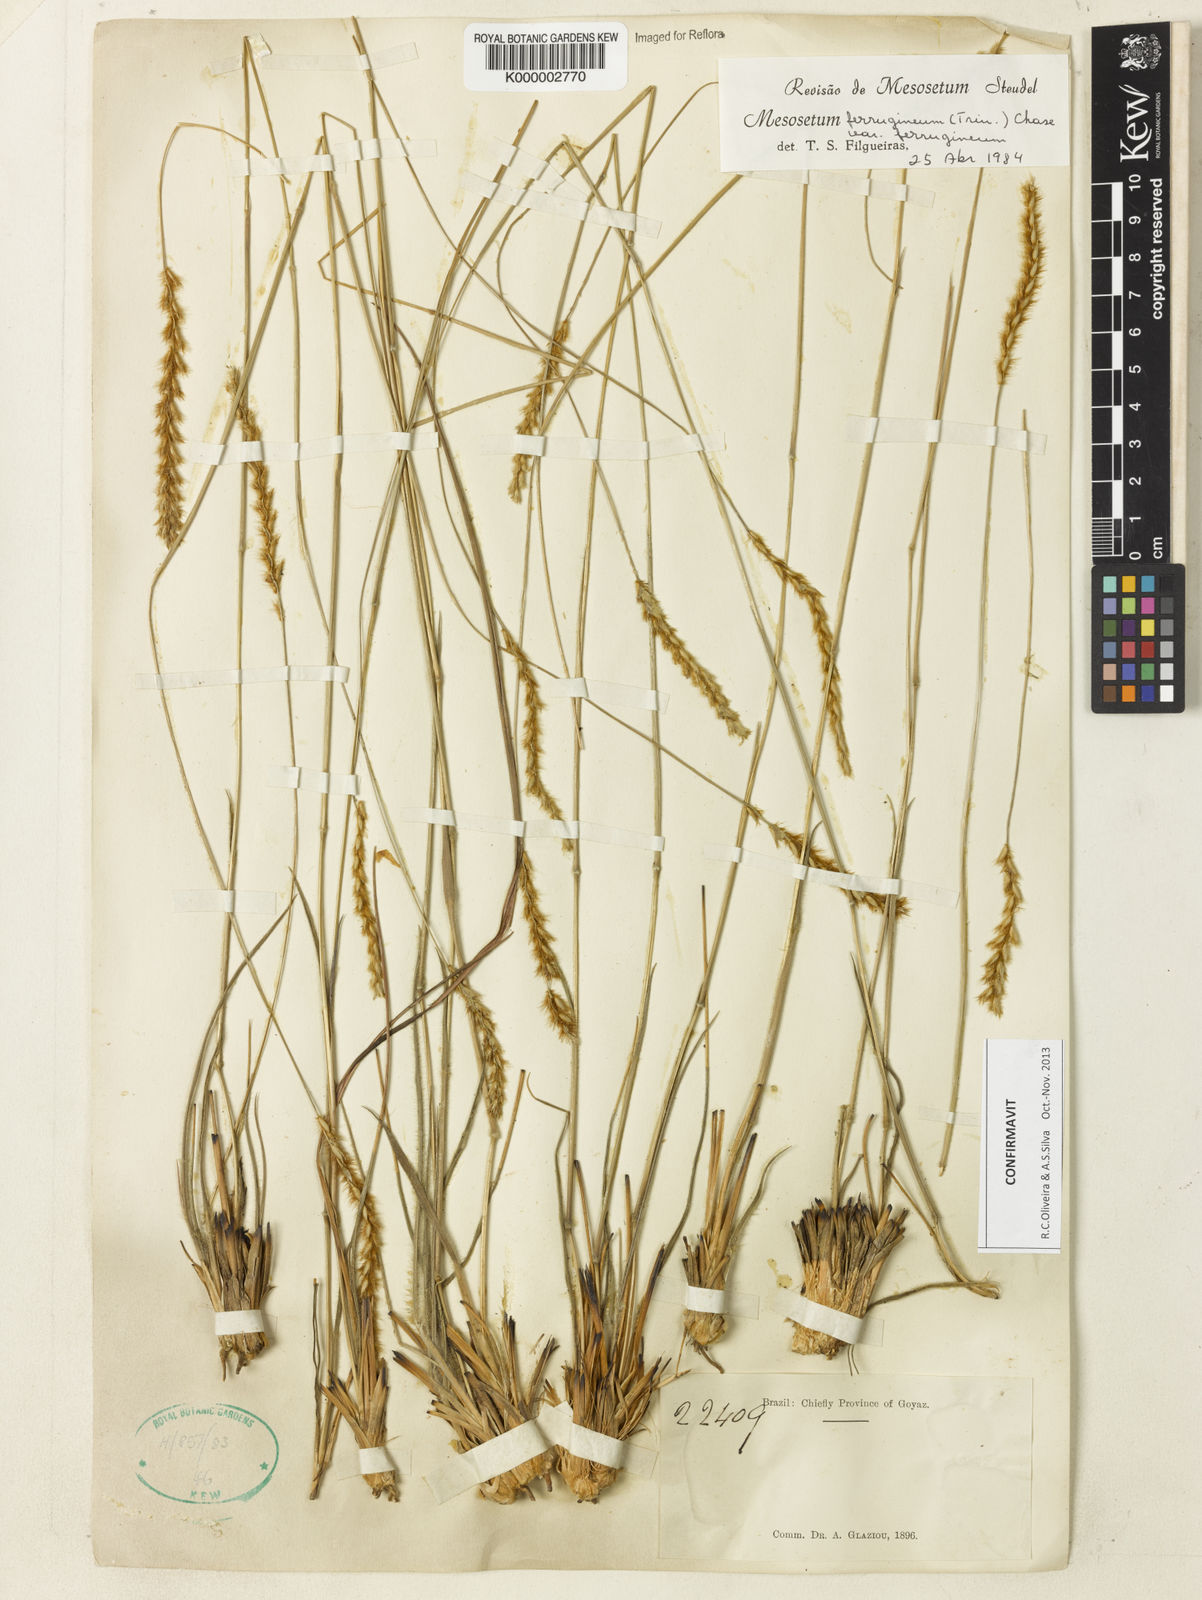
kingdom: Plantae
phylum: Tracheophyta
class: Liliopsida
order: Poales
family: Poaceae
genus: Mesosetum
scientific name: Mesosetum
